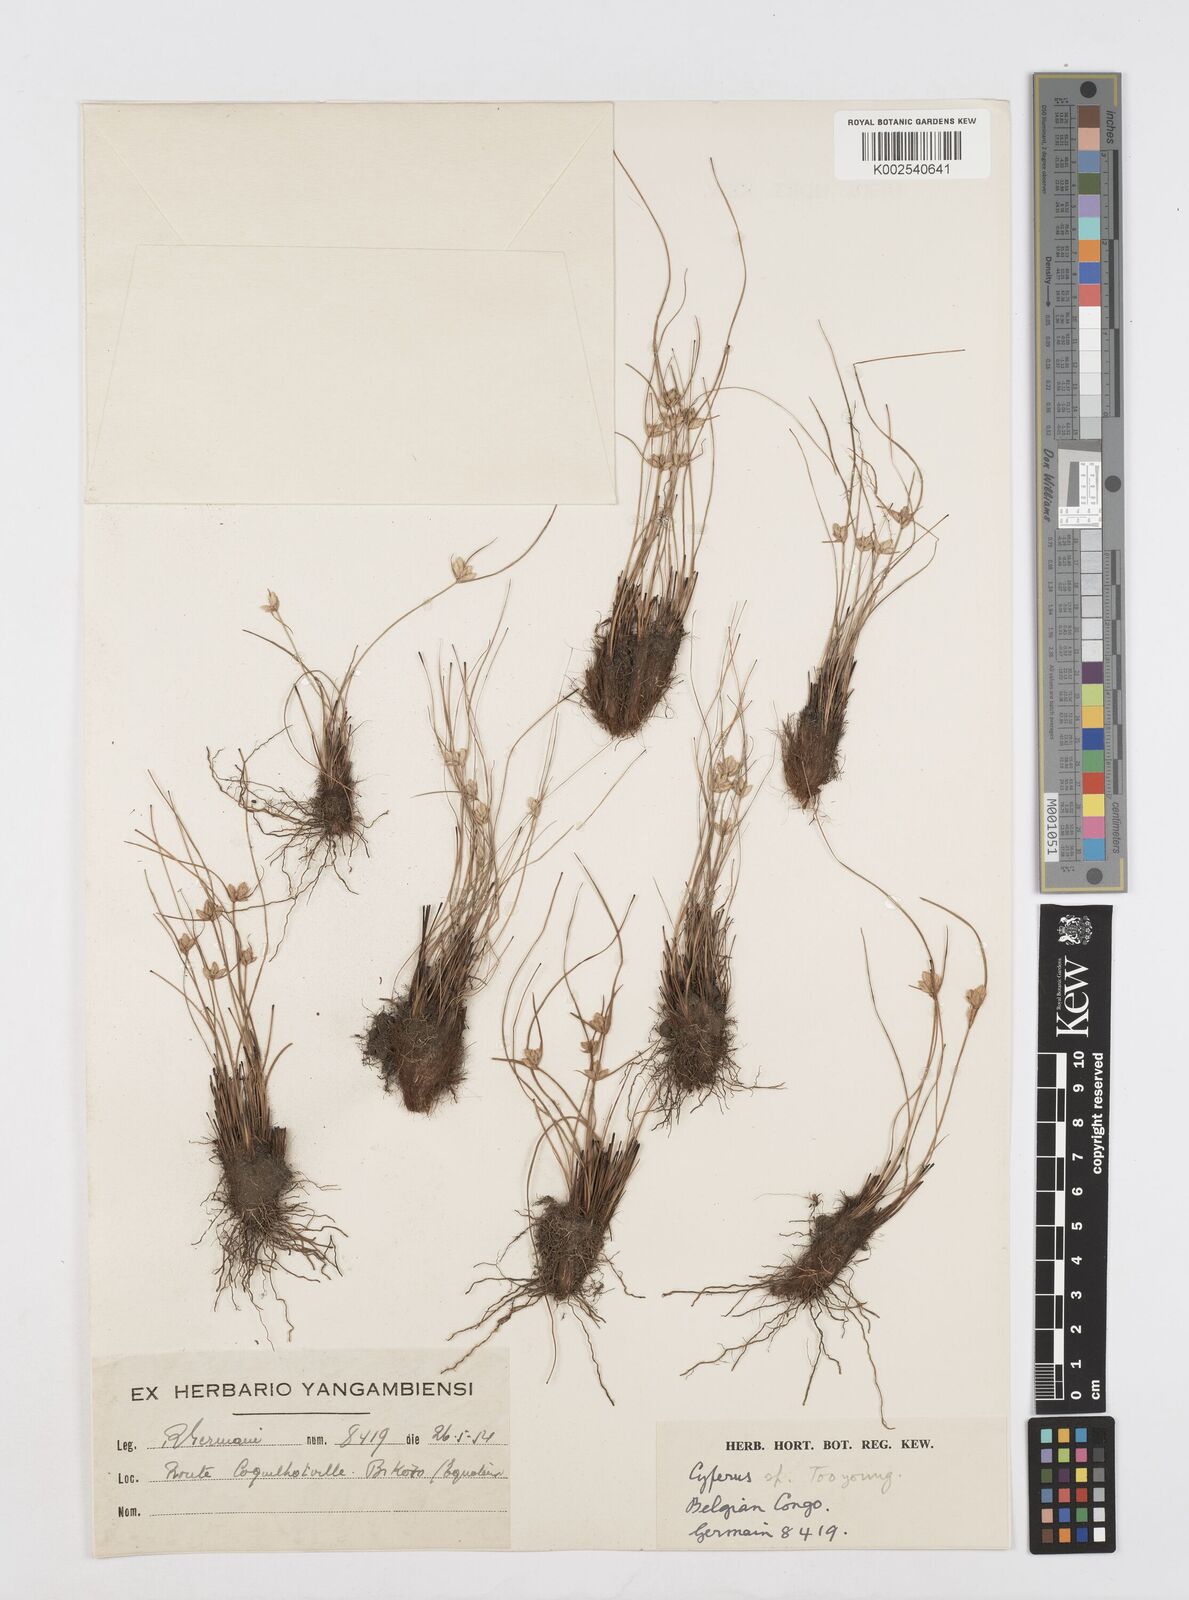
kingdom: Plantae
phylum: Tracheophyta
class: Liliopsida
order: Poales
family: Cyperaceae
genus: Cyperus
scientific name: Cyperus scaettae
